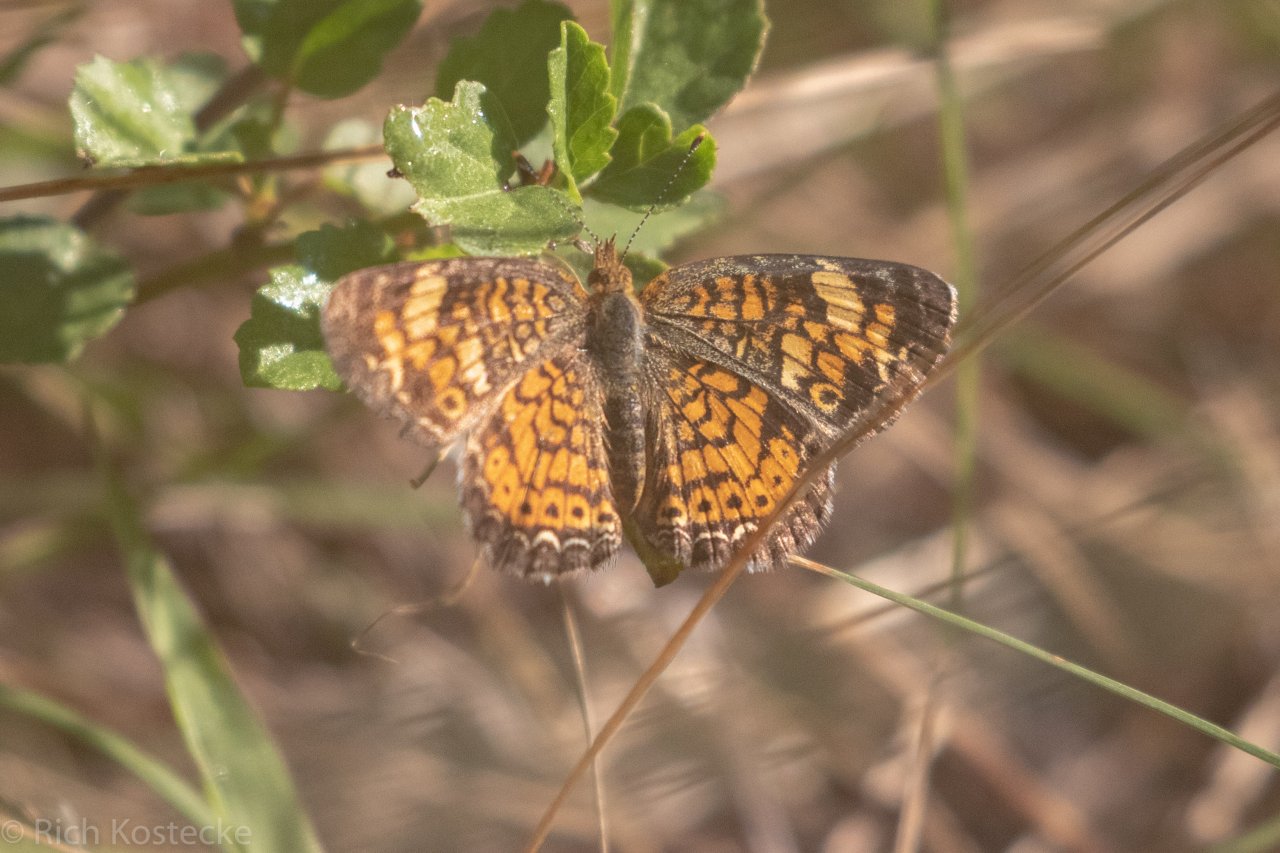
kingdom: Animalia
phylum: Arthropoda
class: Insecta
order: Lepidoptera
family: Nymphalidae
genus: Phyciodes
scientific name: Phyciodes tharos
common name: Pearl Crescent
